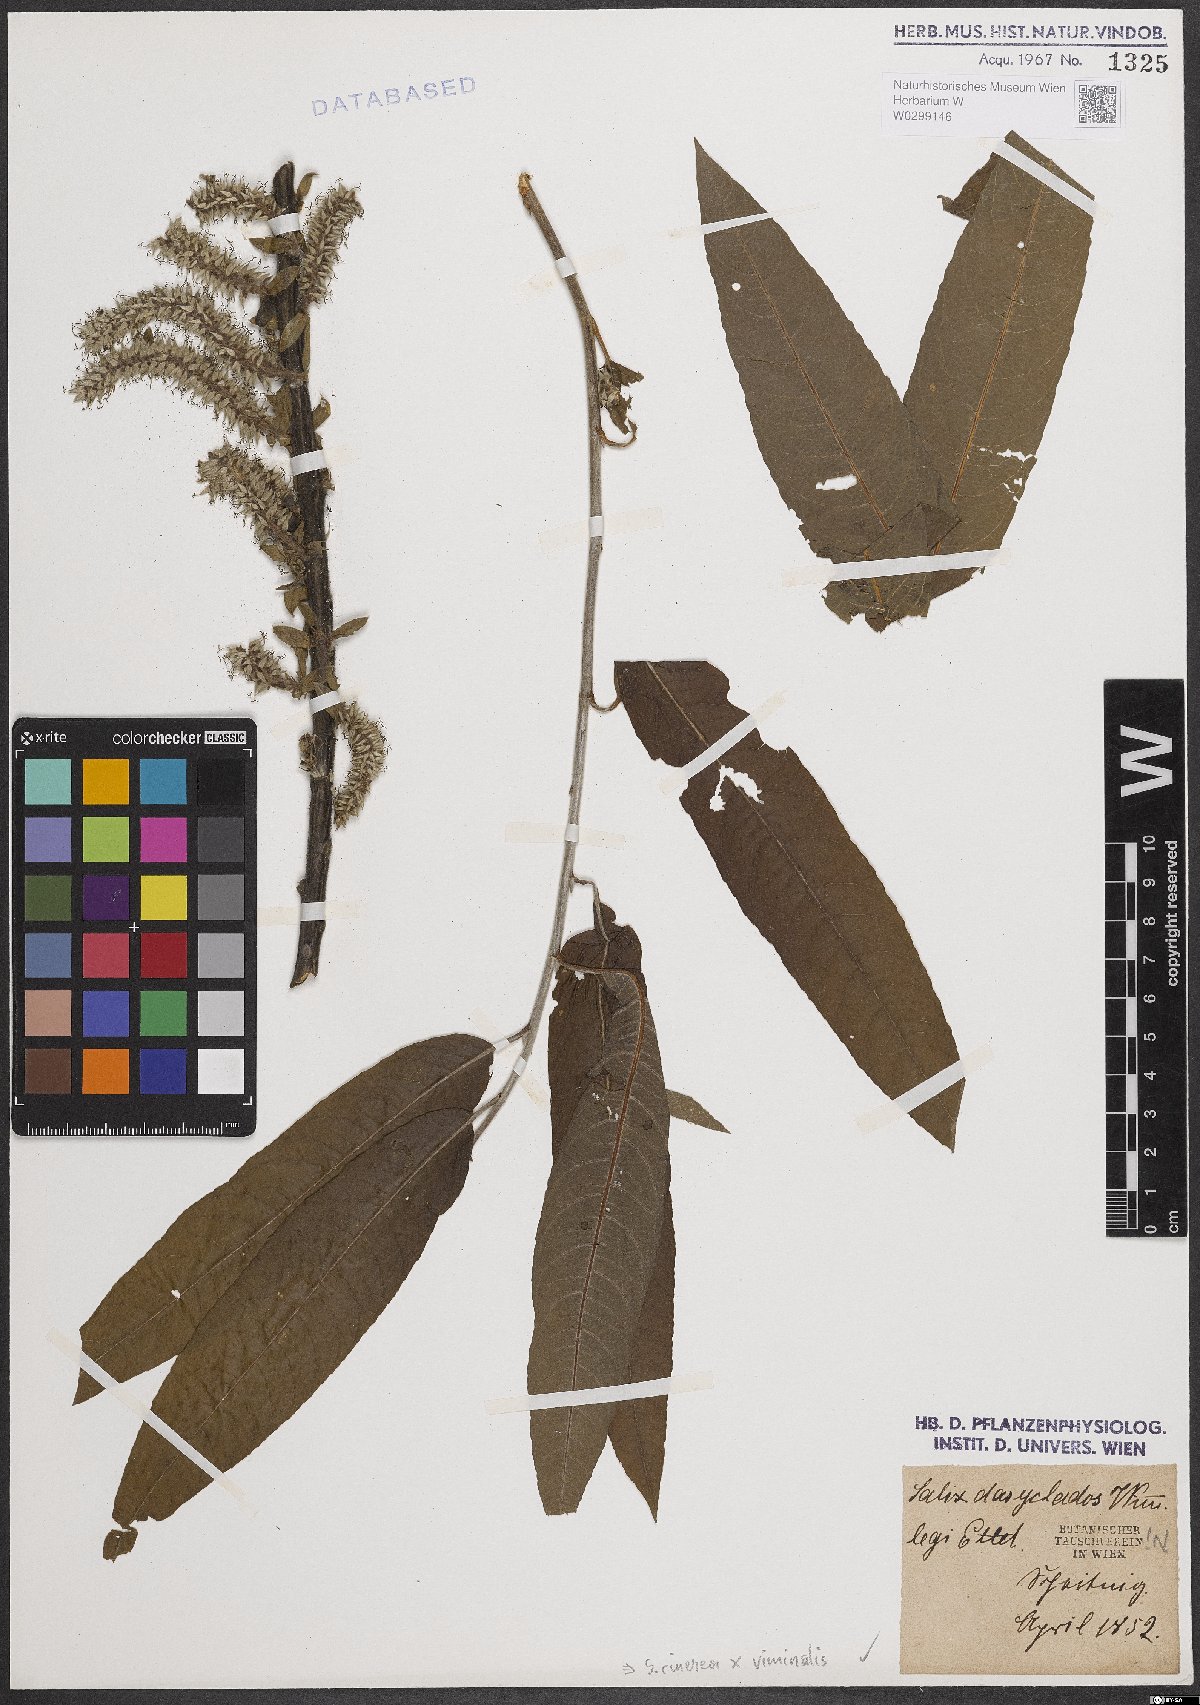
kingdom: Plantae
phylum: Tracheophyta
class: Magnoliopsida
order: Malpighiales
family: Salicaceae
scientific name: Salicaceae
